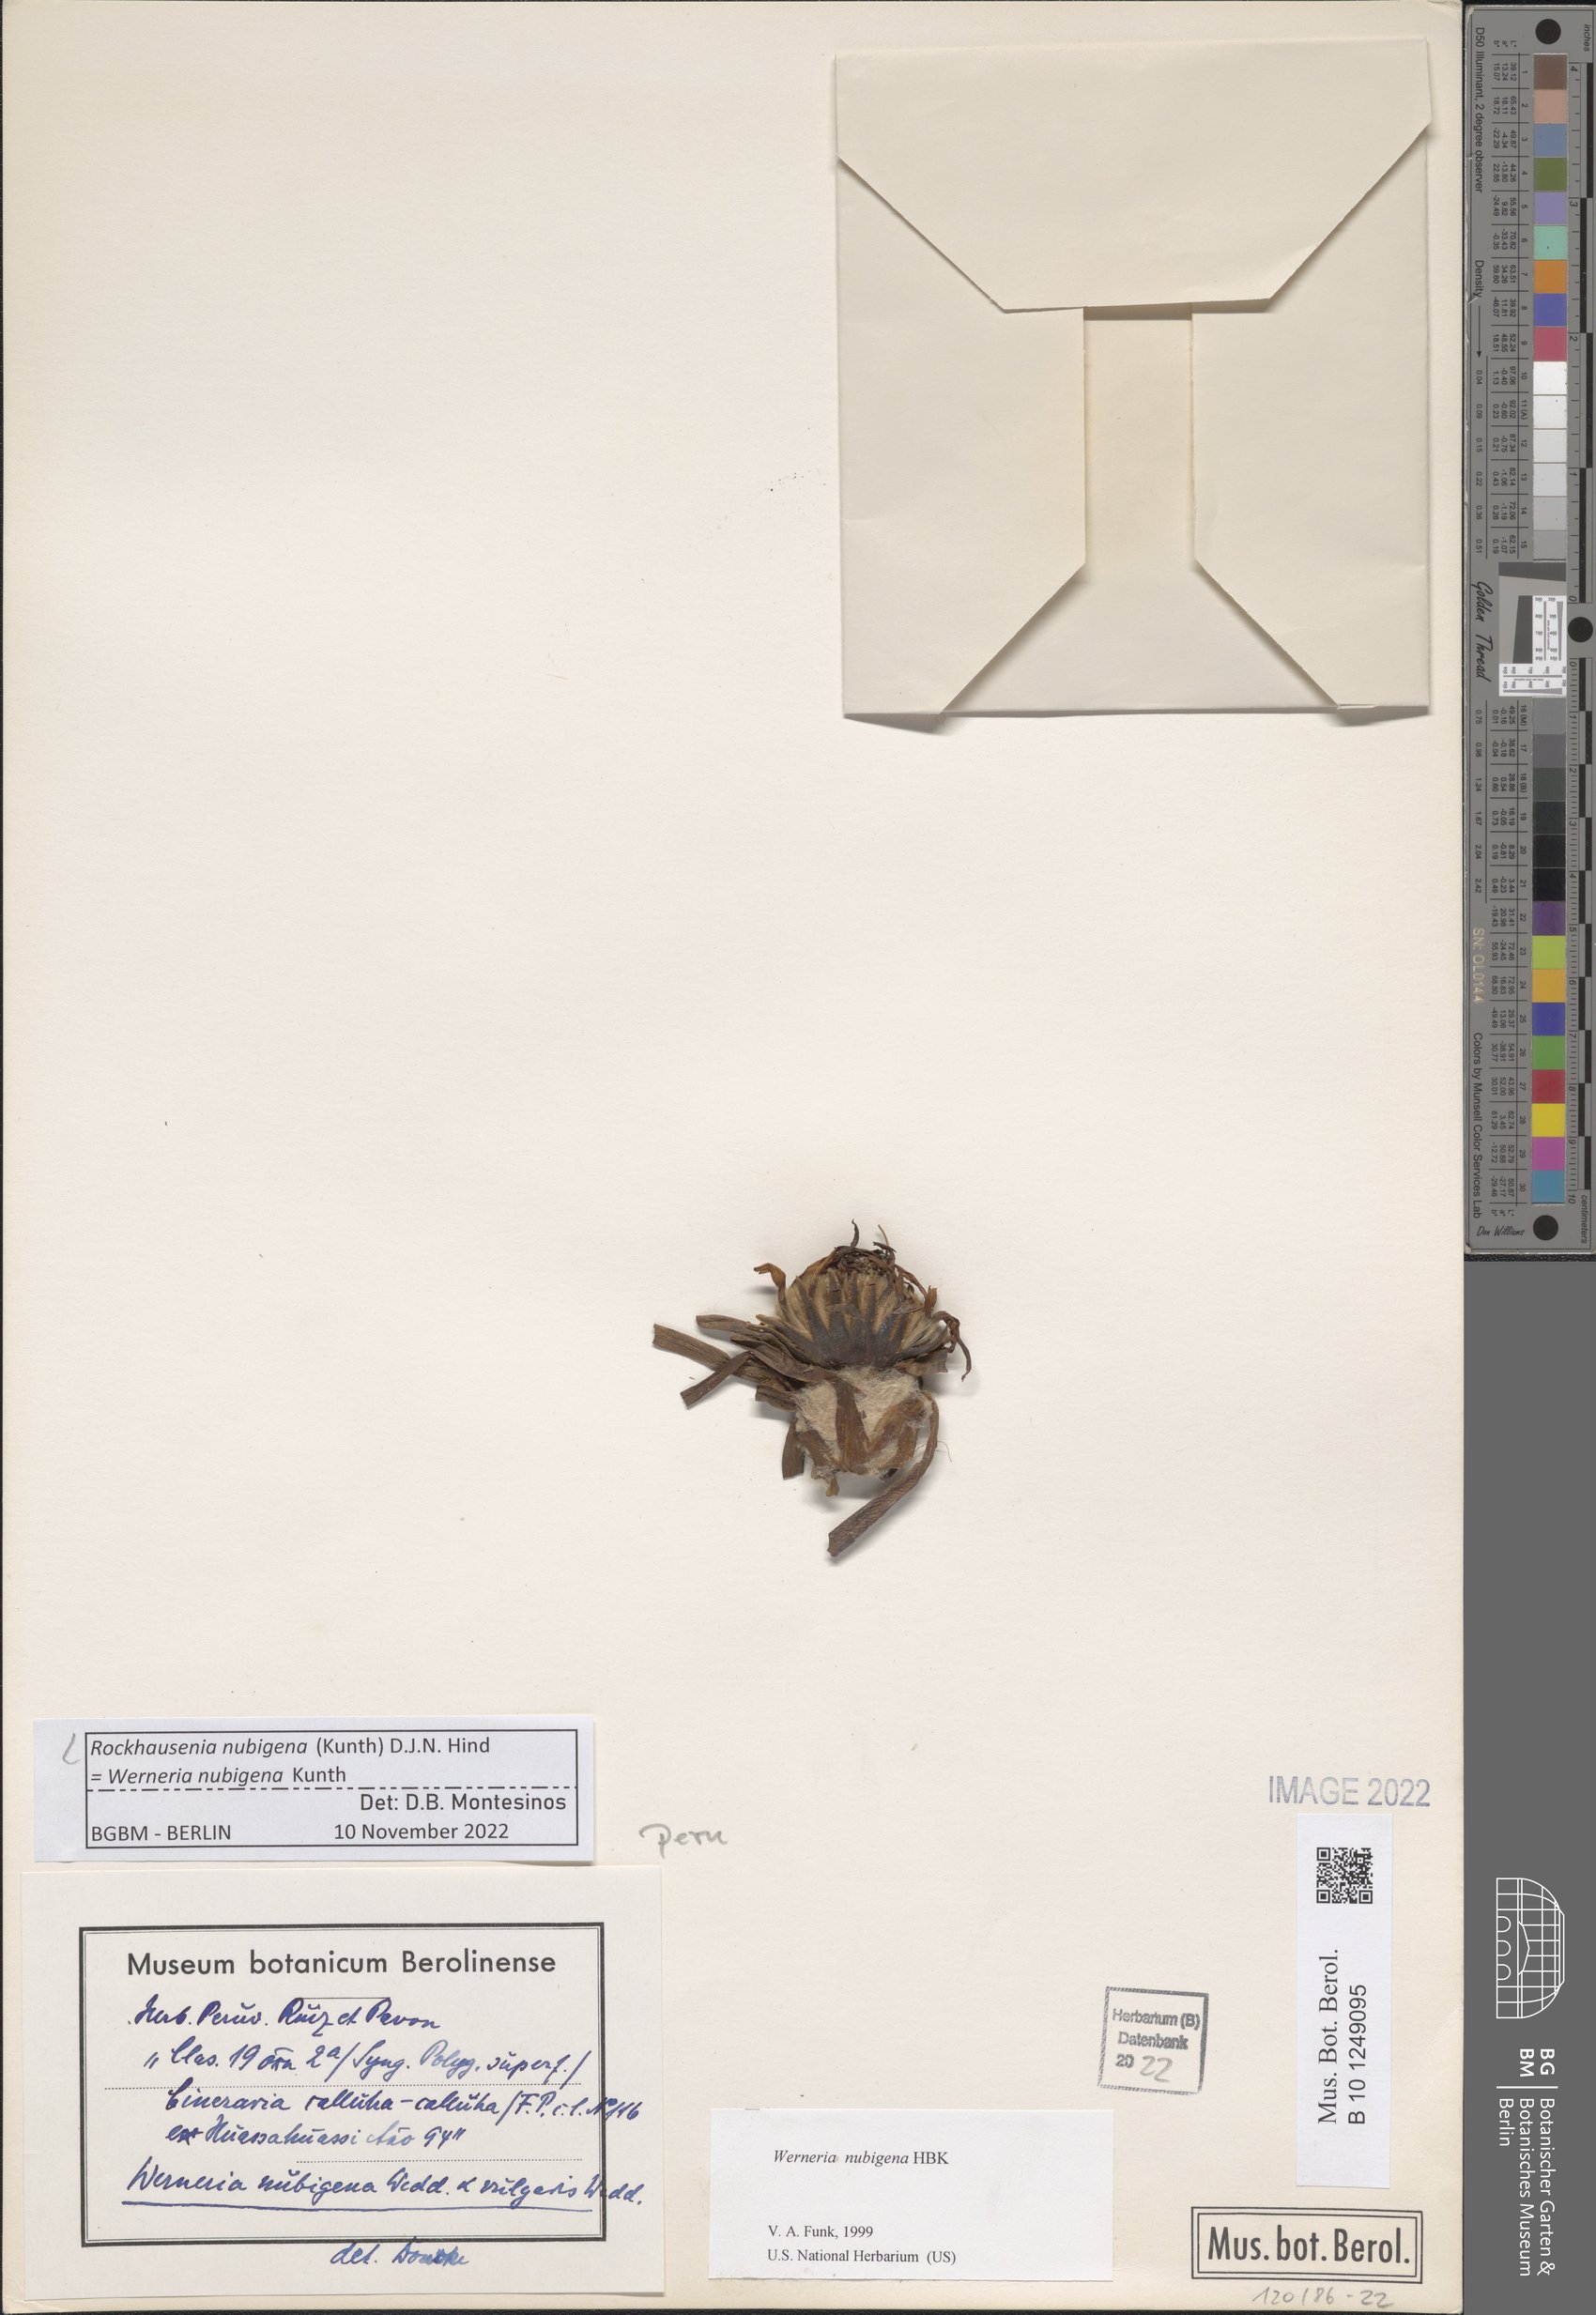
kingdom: Plantae
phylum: Tracheophyta
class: Magnoliopsida
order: Asterales
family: Asteraceae
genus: Rockhausenia
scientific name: Rockhausenia nubigena
